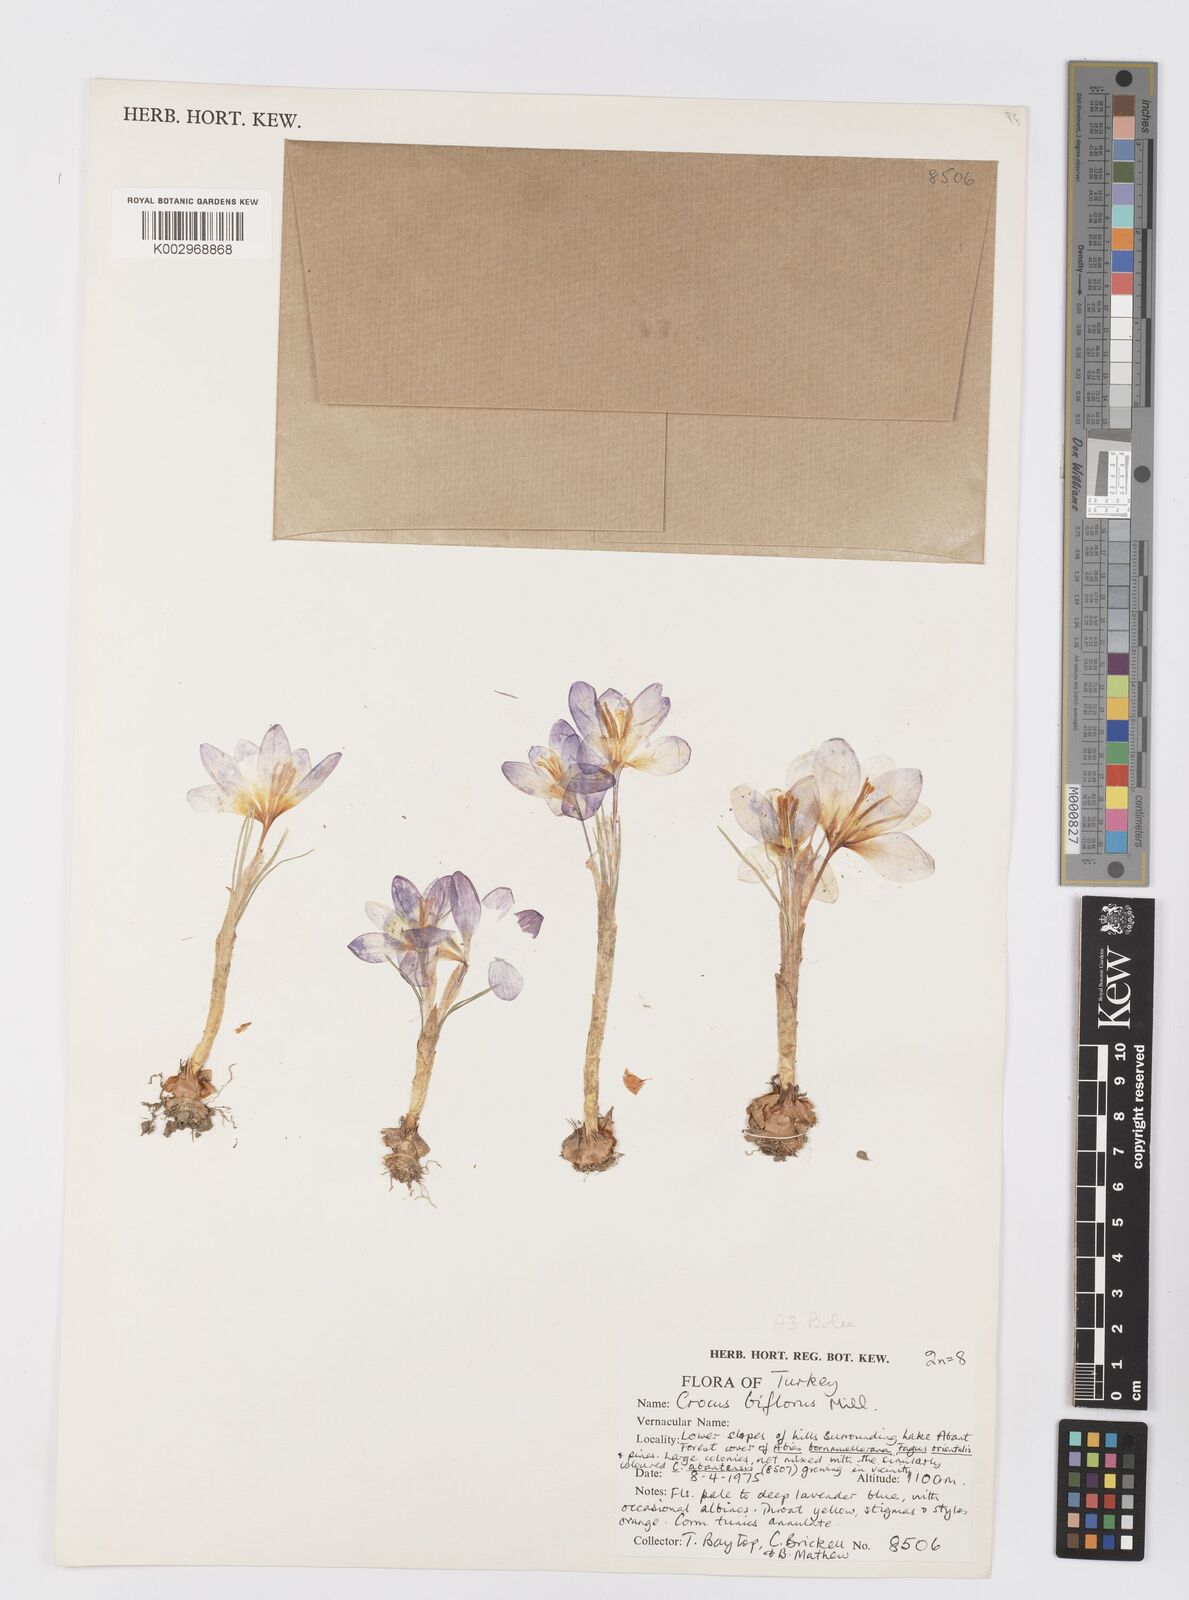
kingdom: Plantae
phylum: Tracheophyta
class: Liliopsida
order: Asparagales
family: Iridaceae
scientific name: Iridaceae
